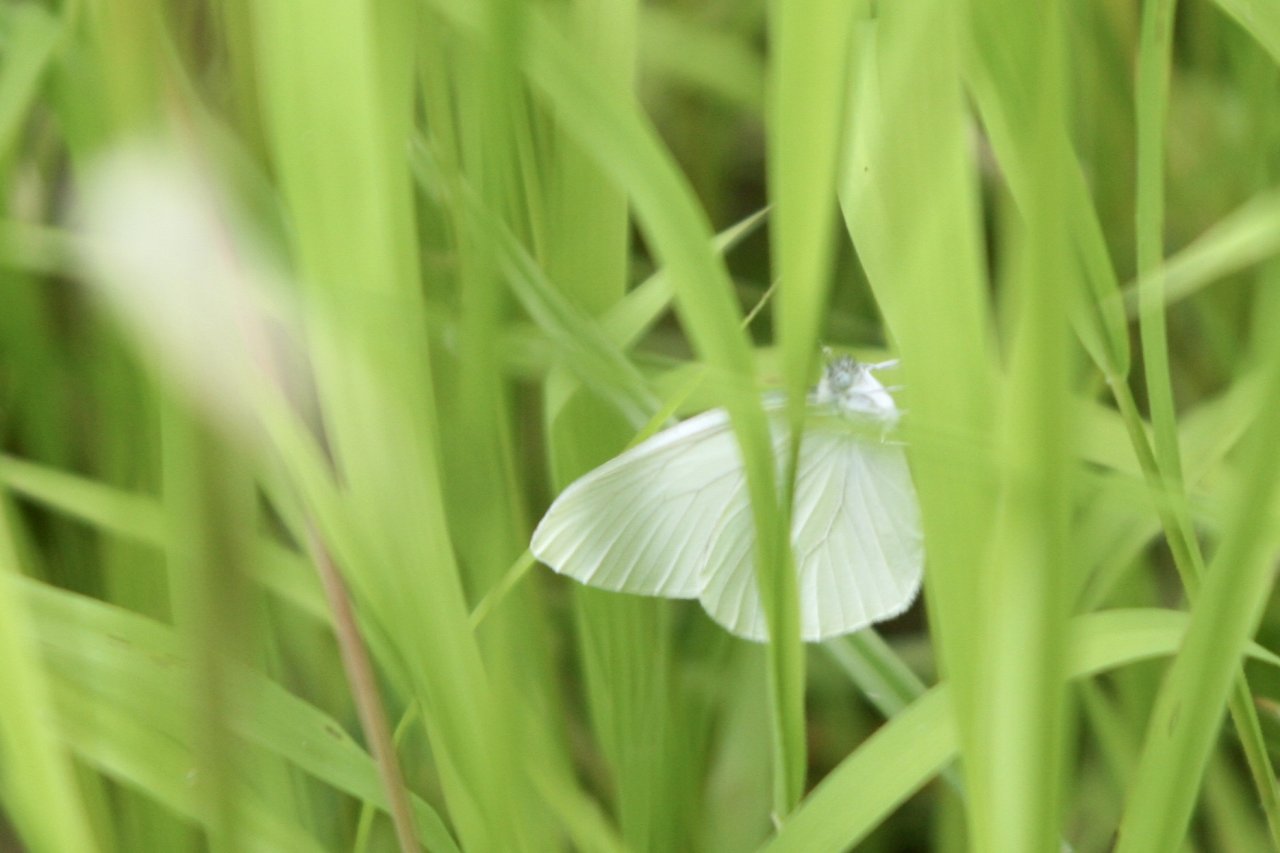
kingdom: Animalia
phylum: Arthropoda
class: Insecta
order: Lepidoptera
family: Pieridae
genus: Pieris
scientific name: Pieris oleracea
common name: Mustard White
